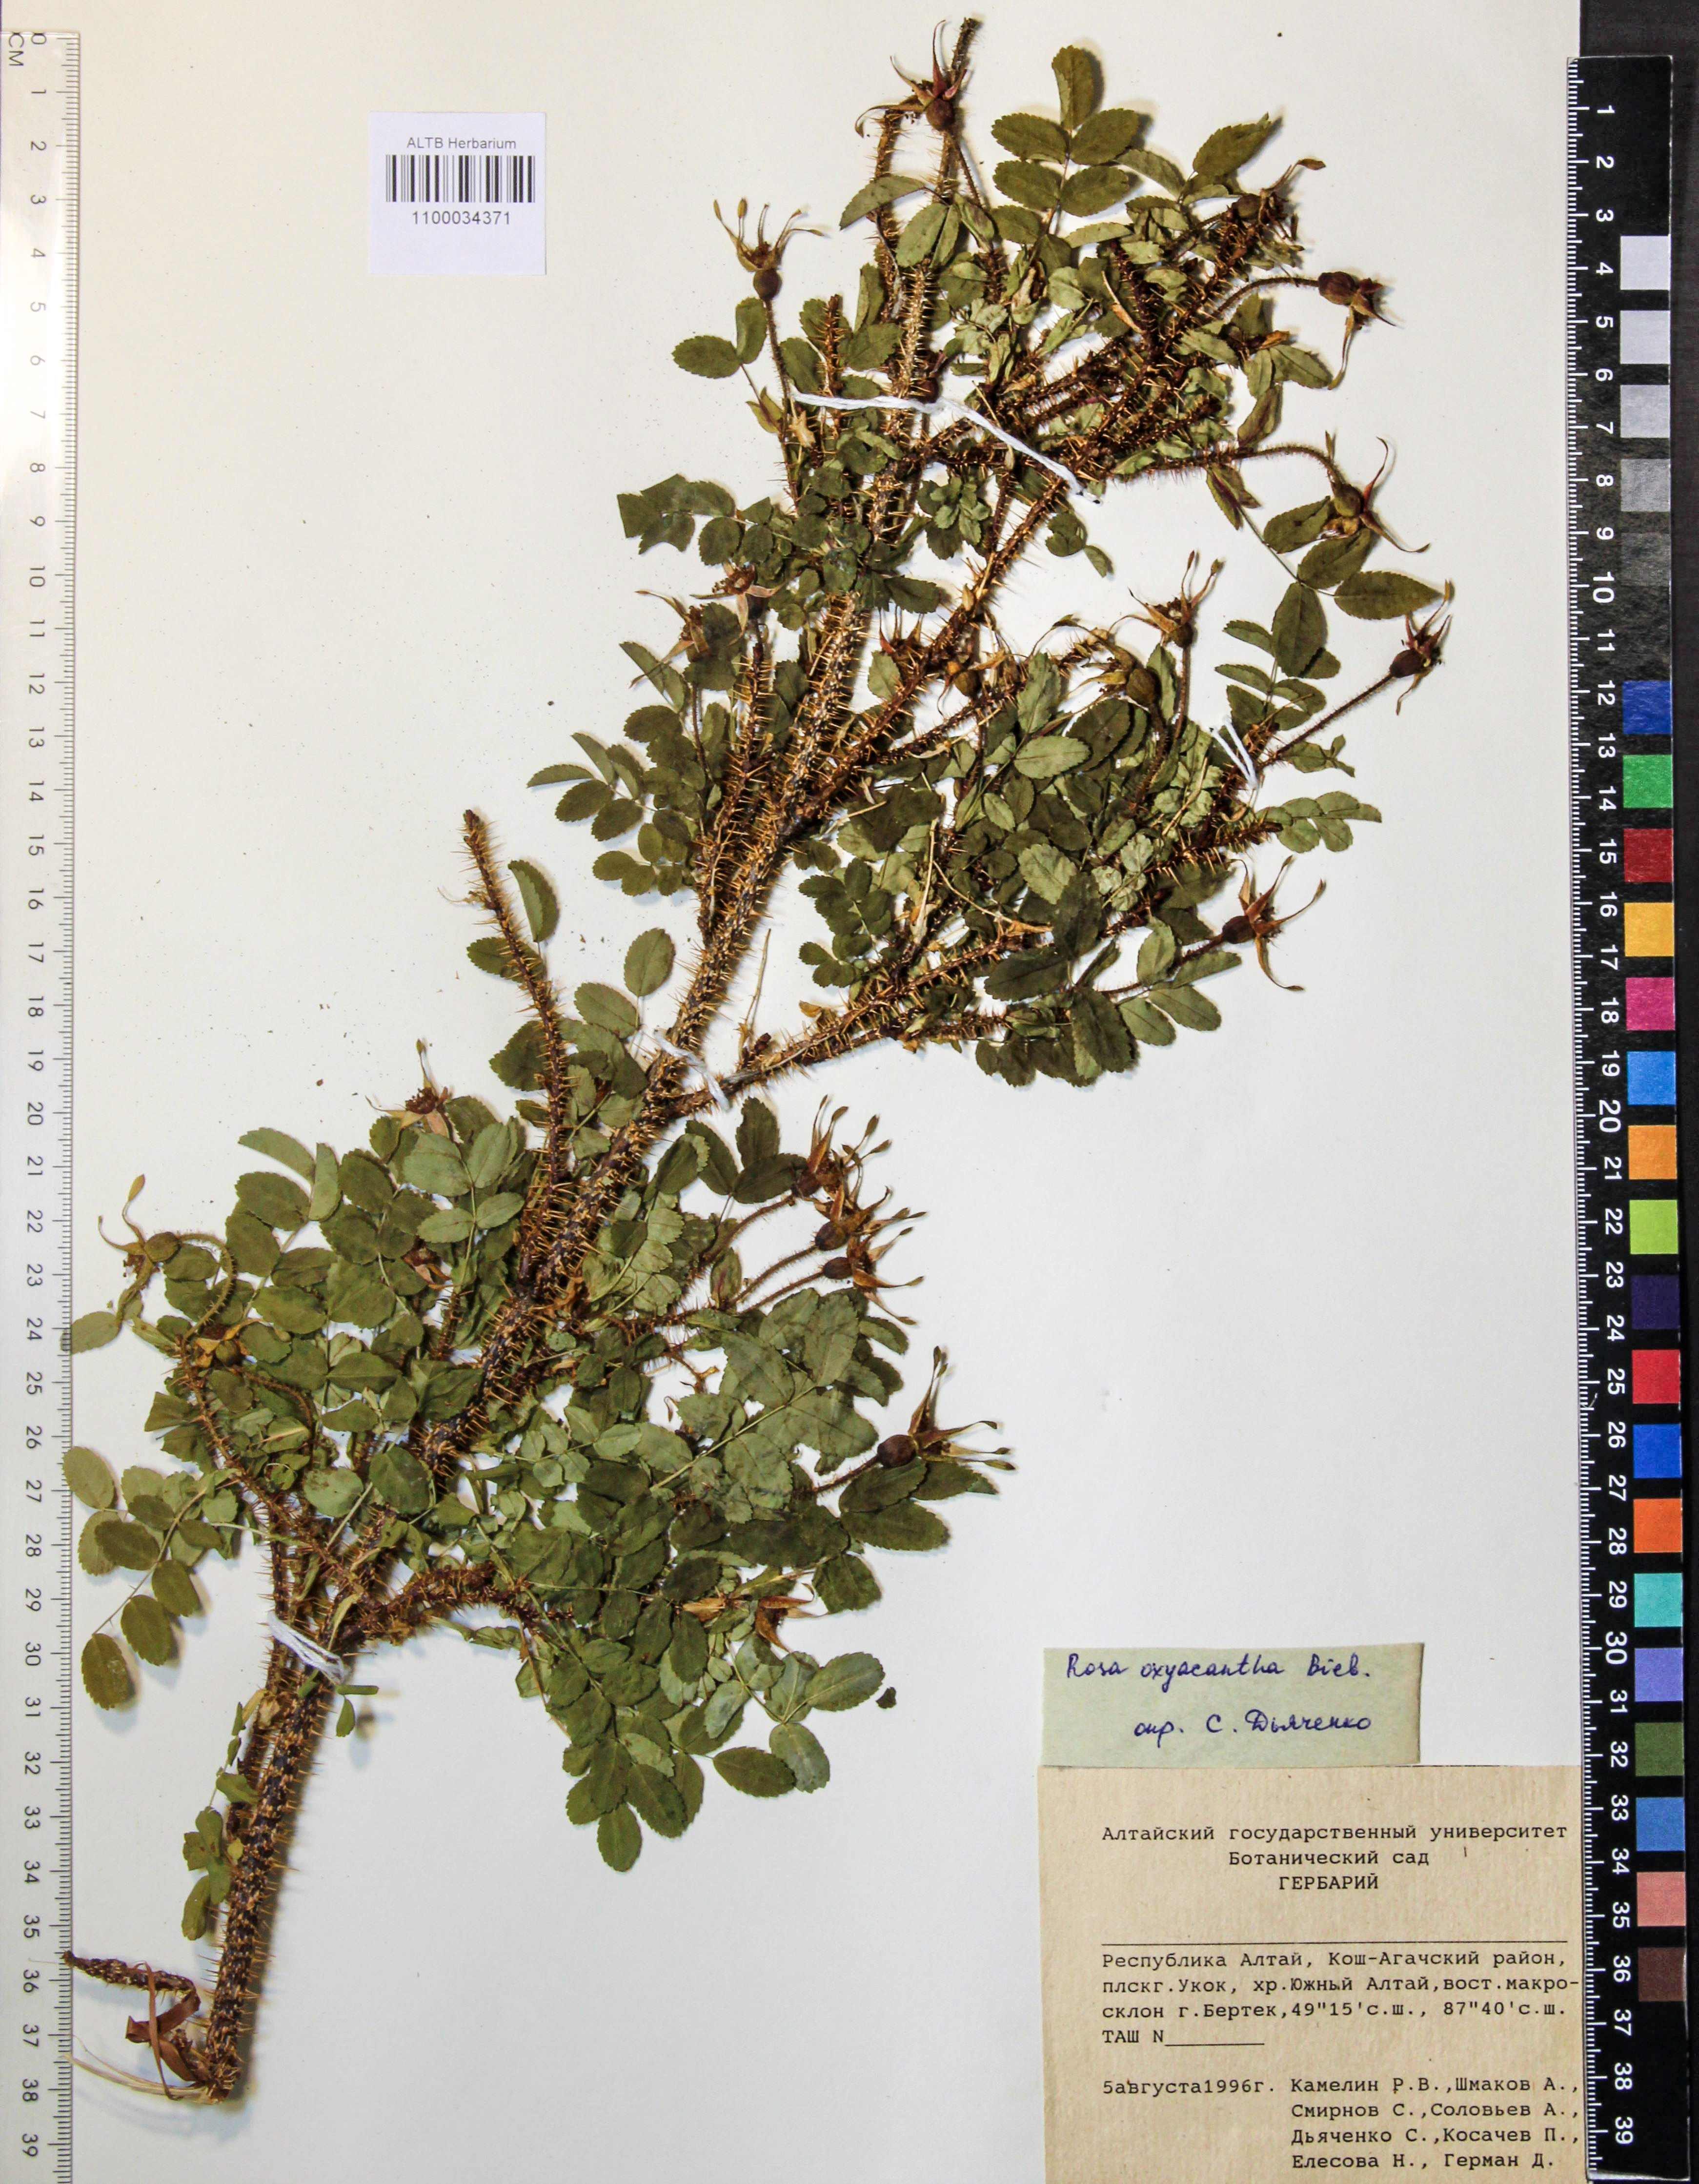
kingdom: Plantae
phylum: Tracheophyta
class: Magnoliopsida
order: Rosales
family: Rosaceae
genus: Rosa
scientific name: Rosa oxyacantha
